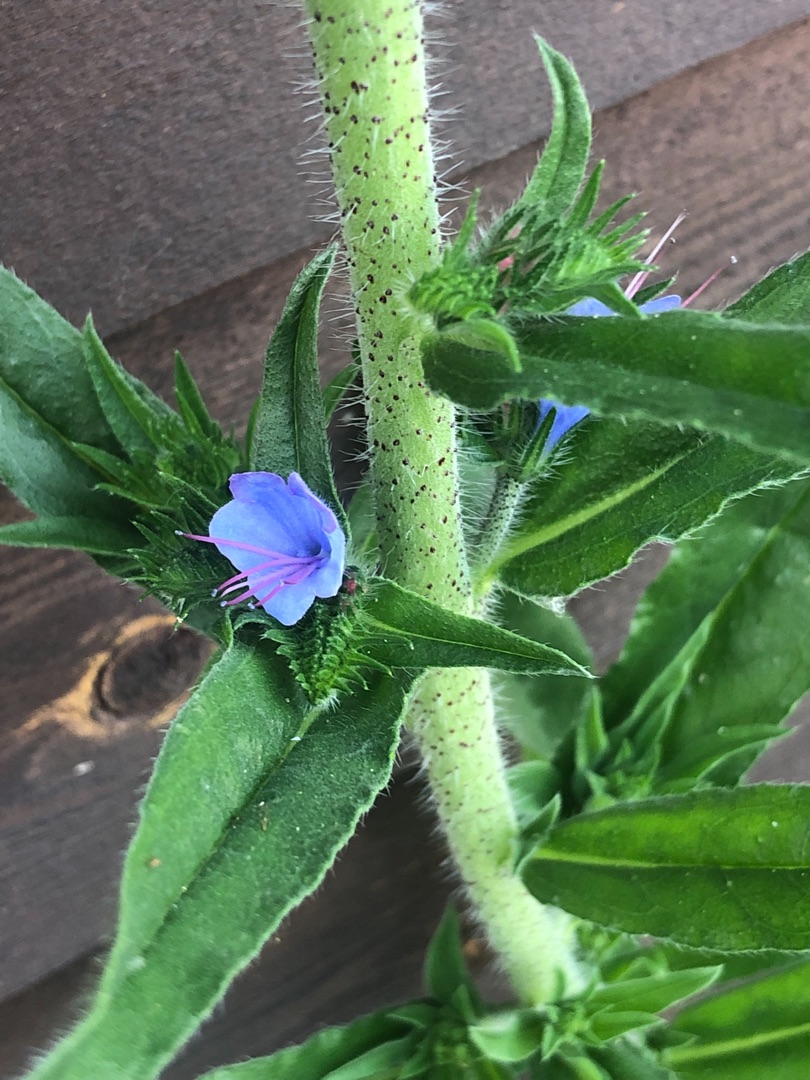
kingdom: Plantae
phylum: Tracheophyta
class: Magnoliopsida
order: Boraginales
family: Boraginaceae
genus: Echium
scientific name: Echium vulgare
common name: Slangehoved
